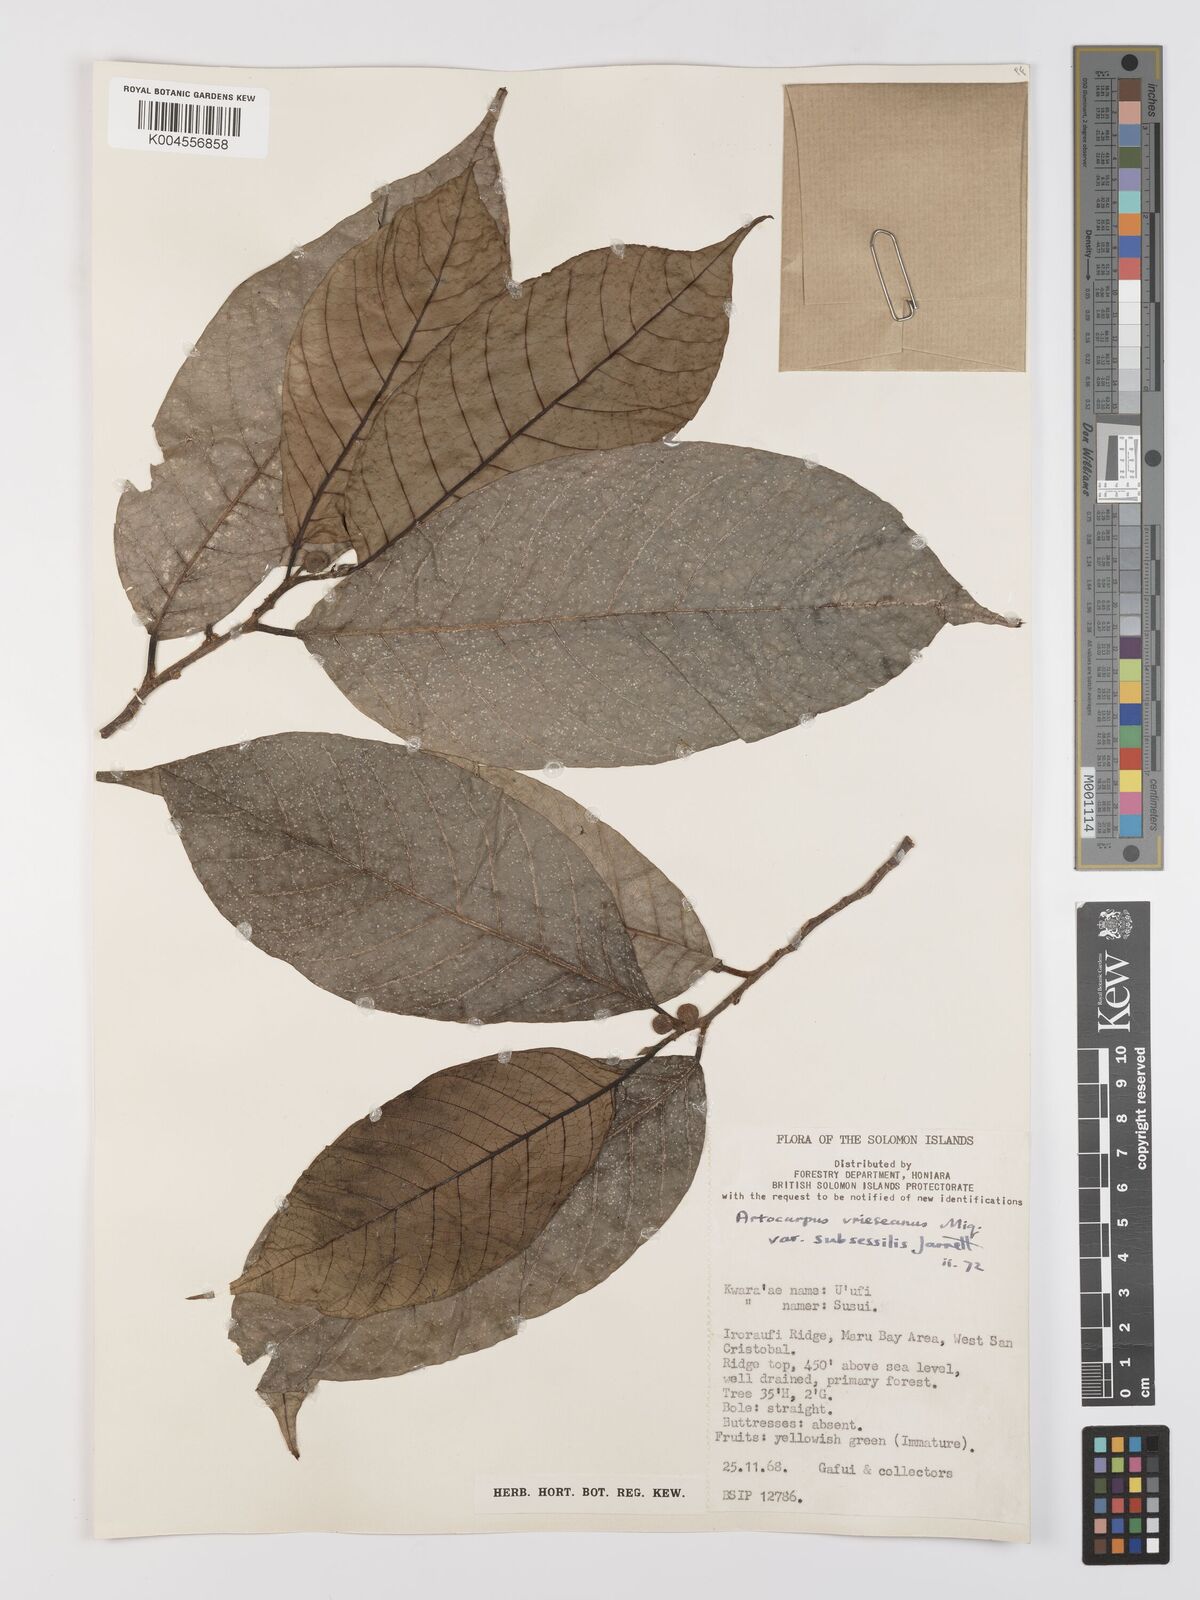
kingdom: Plantae
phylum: Tracheophyta
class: Magnoliopsida
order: Rosales
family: Moraceae
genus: Artocarpus
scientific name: Artocarpus vrieseanus
